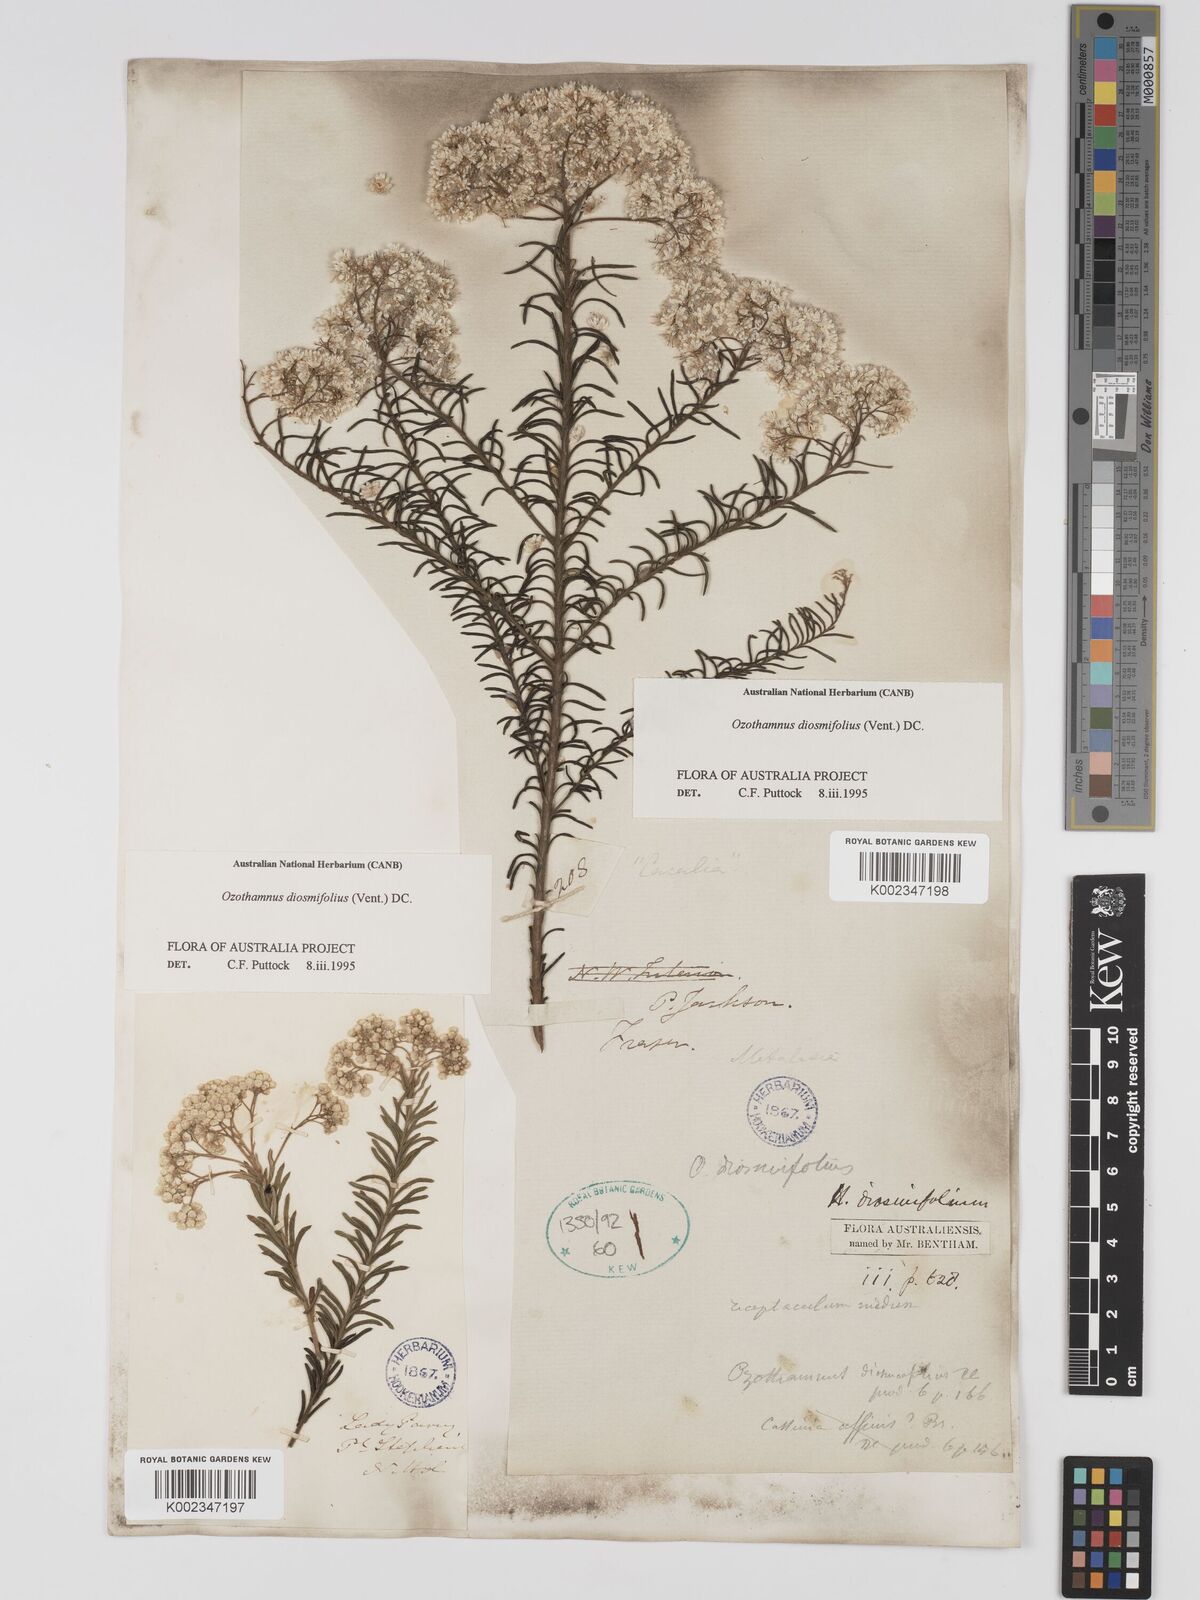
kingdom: Plantae
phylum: Tracheophyta
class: Magnoliopsida
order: Asterales
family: Asteraceae
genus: Ozothamnus
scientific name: Ozothamnus diosmifolius
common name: White-dogwood
